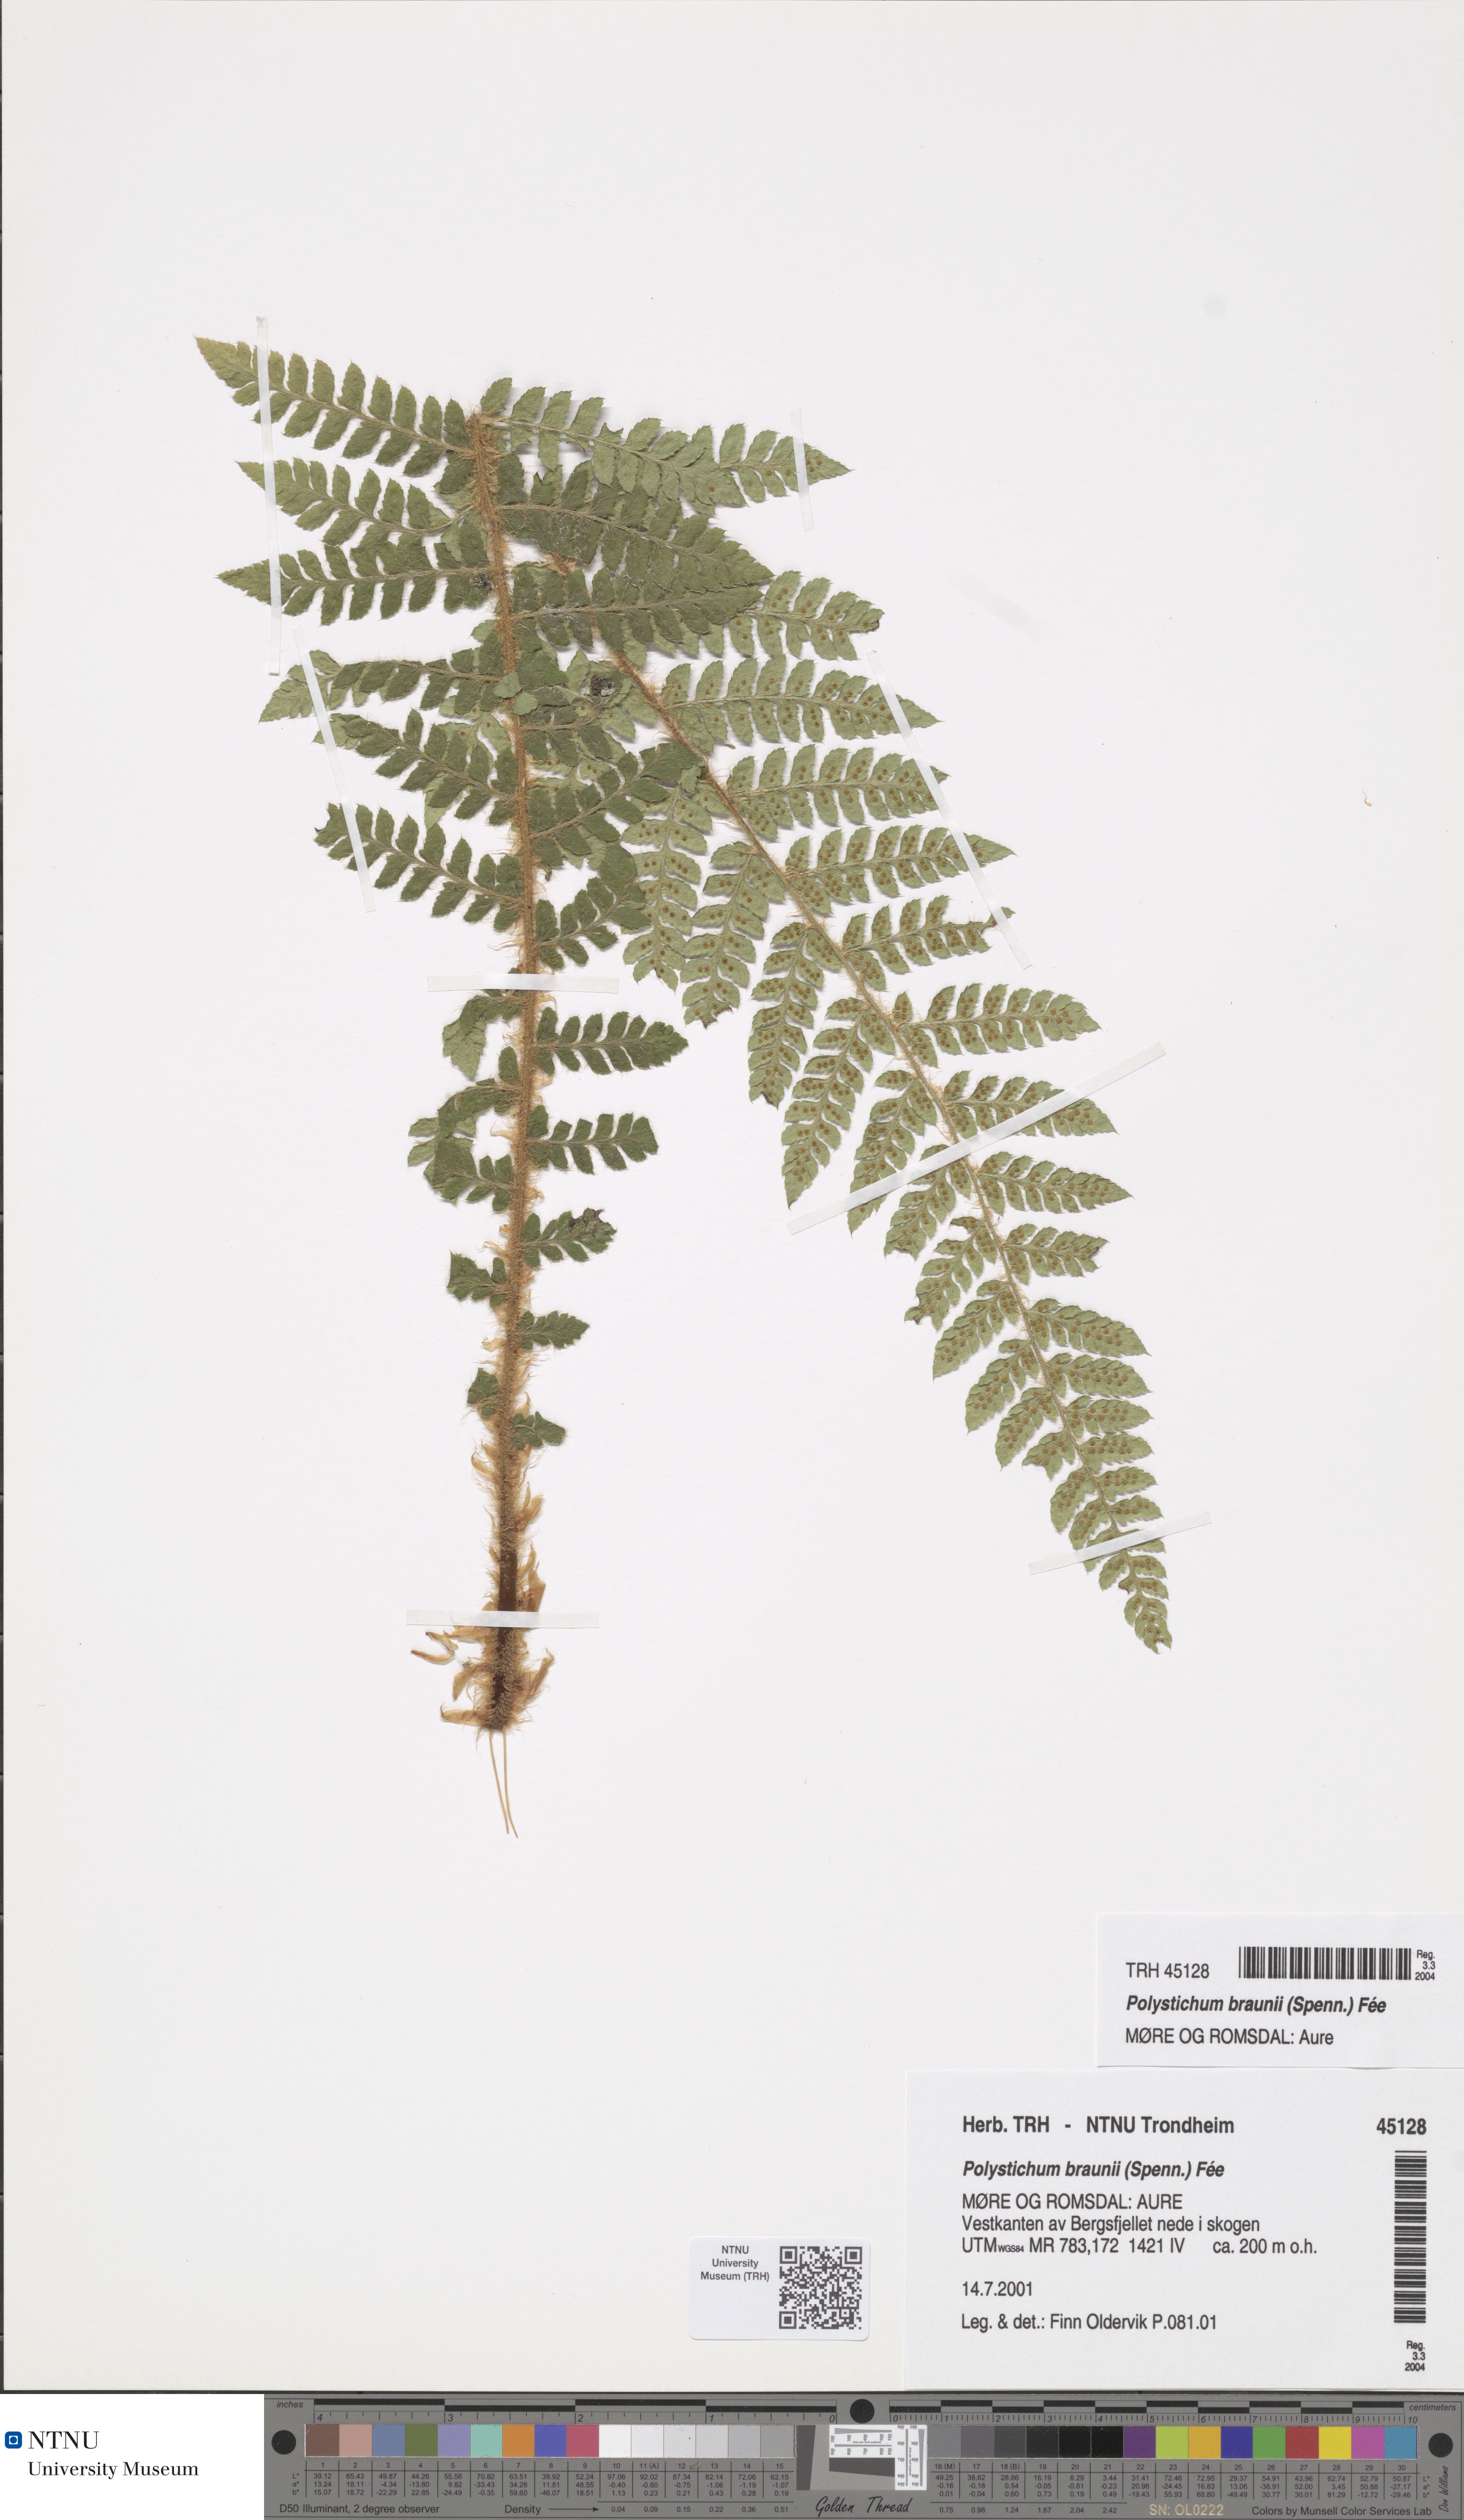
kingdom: Plantae
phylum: Tracheophyta
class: Polypodiopsida
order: Polypodiales
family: Dryopteridaceae
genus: Polystichum
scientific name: Polystichum braunii
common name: Braun's holly fern
